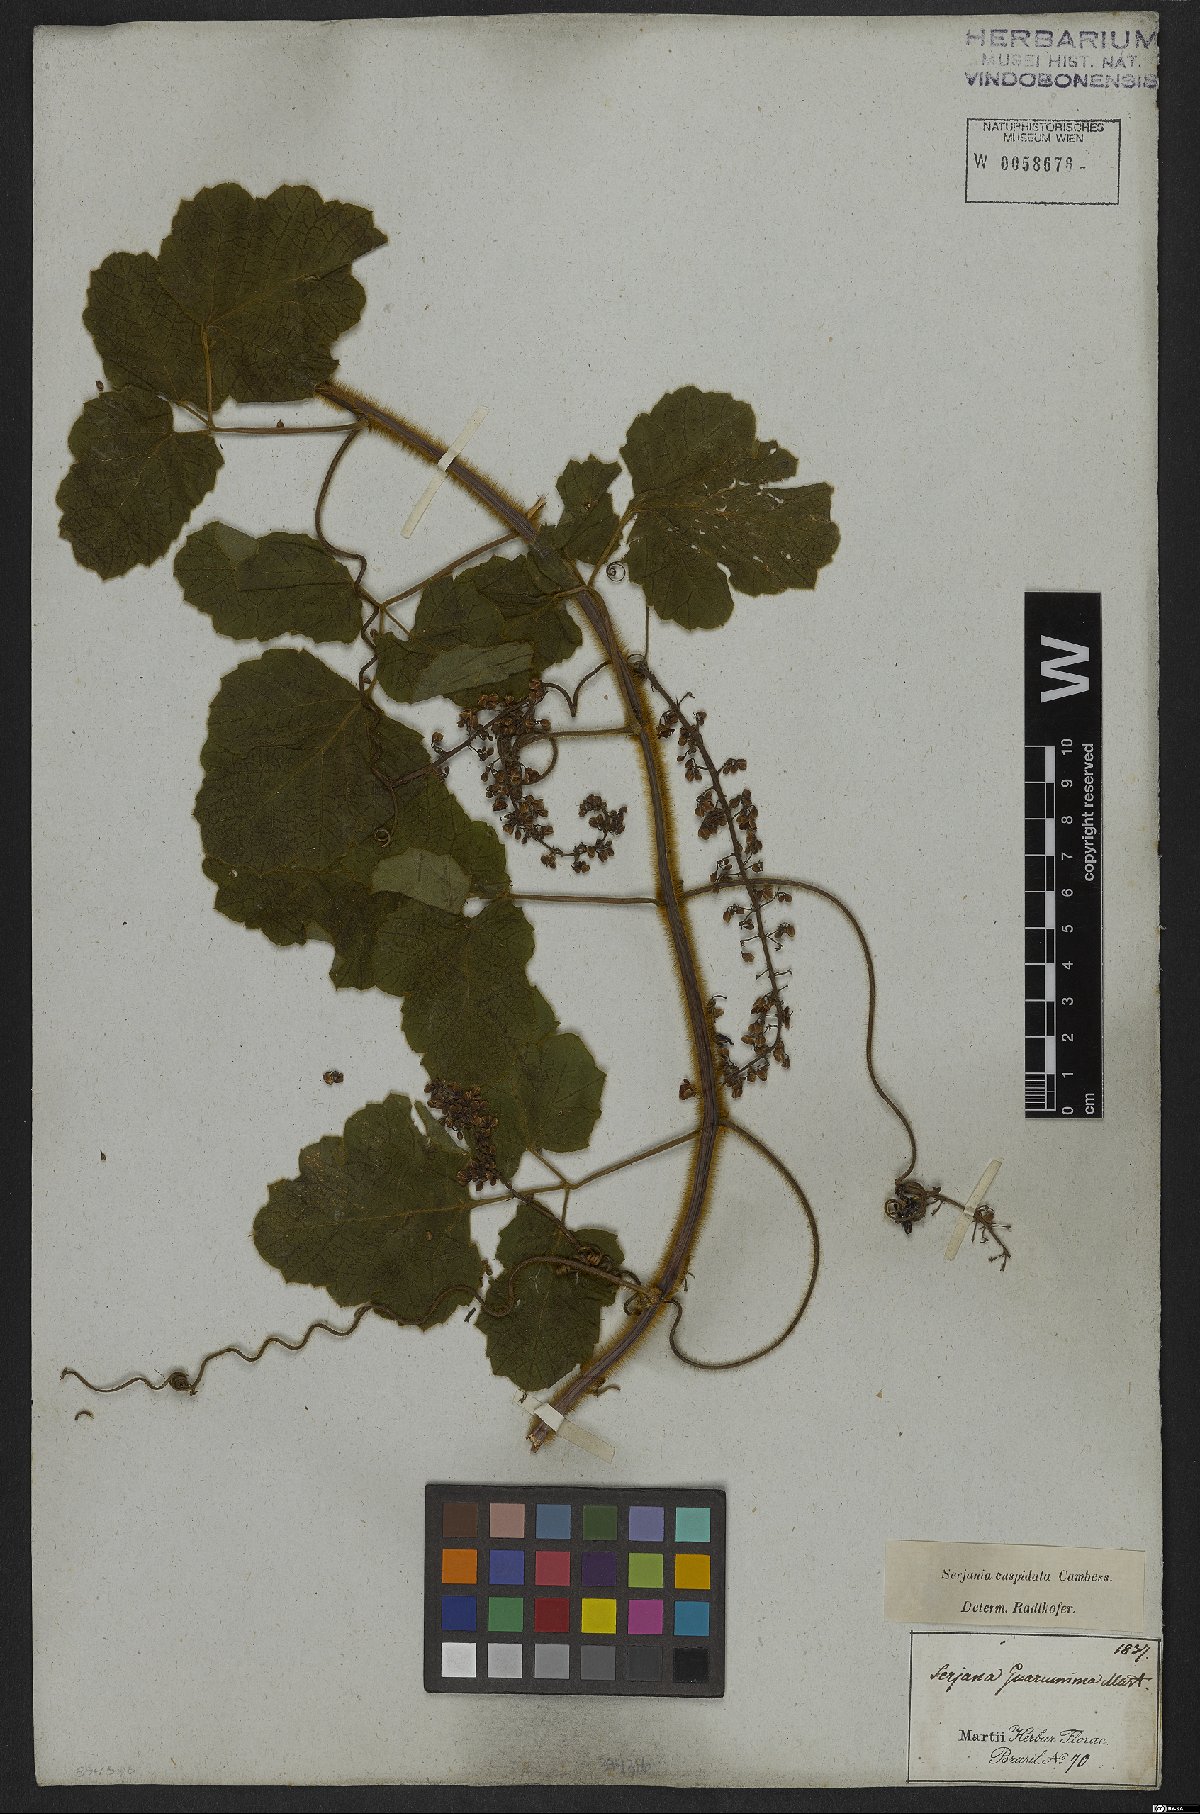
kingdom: Plantae
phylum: Tracheophyta
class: Magnoliopsida
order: Sapindales
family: Sapindaceae
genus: Serjania
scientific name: Serjania ferruginea
